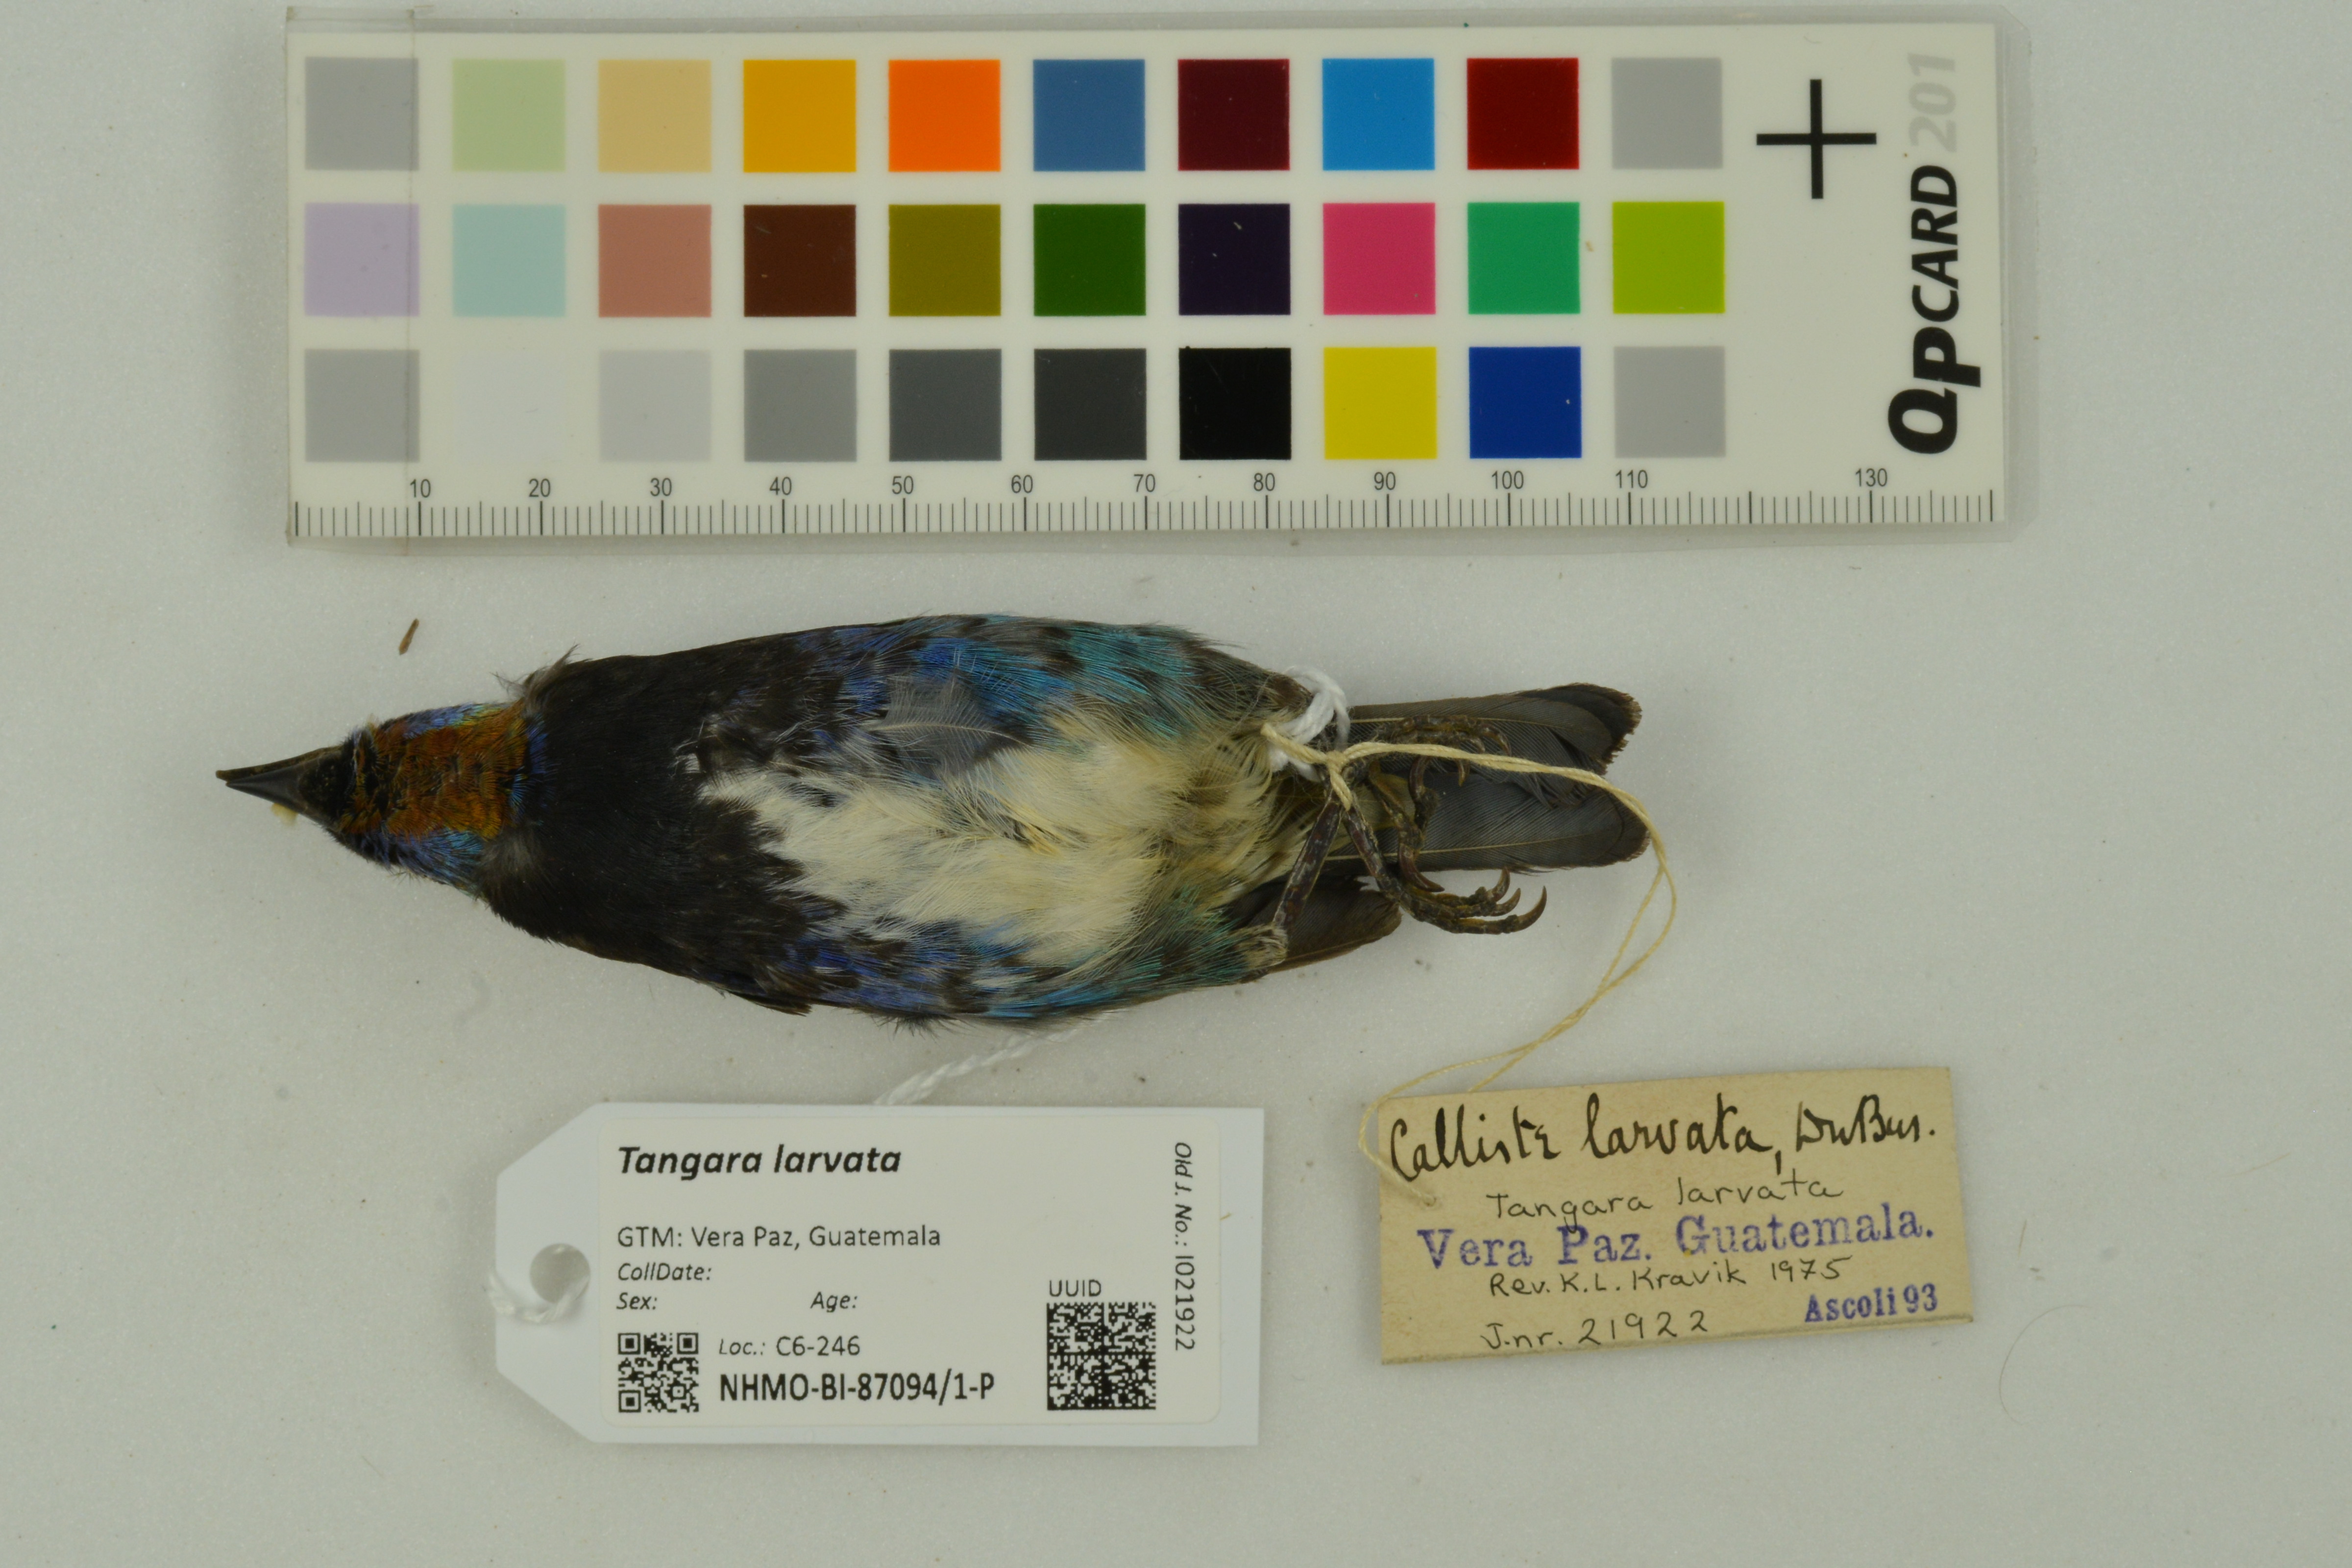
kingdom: Animalia
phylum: Chordata
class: Aves
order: Passeriformes
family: Thraupidae
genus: Stilpnia
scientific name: Stilpnia larvata
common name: Golden-hooded tanager
